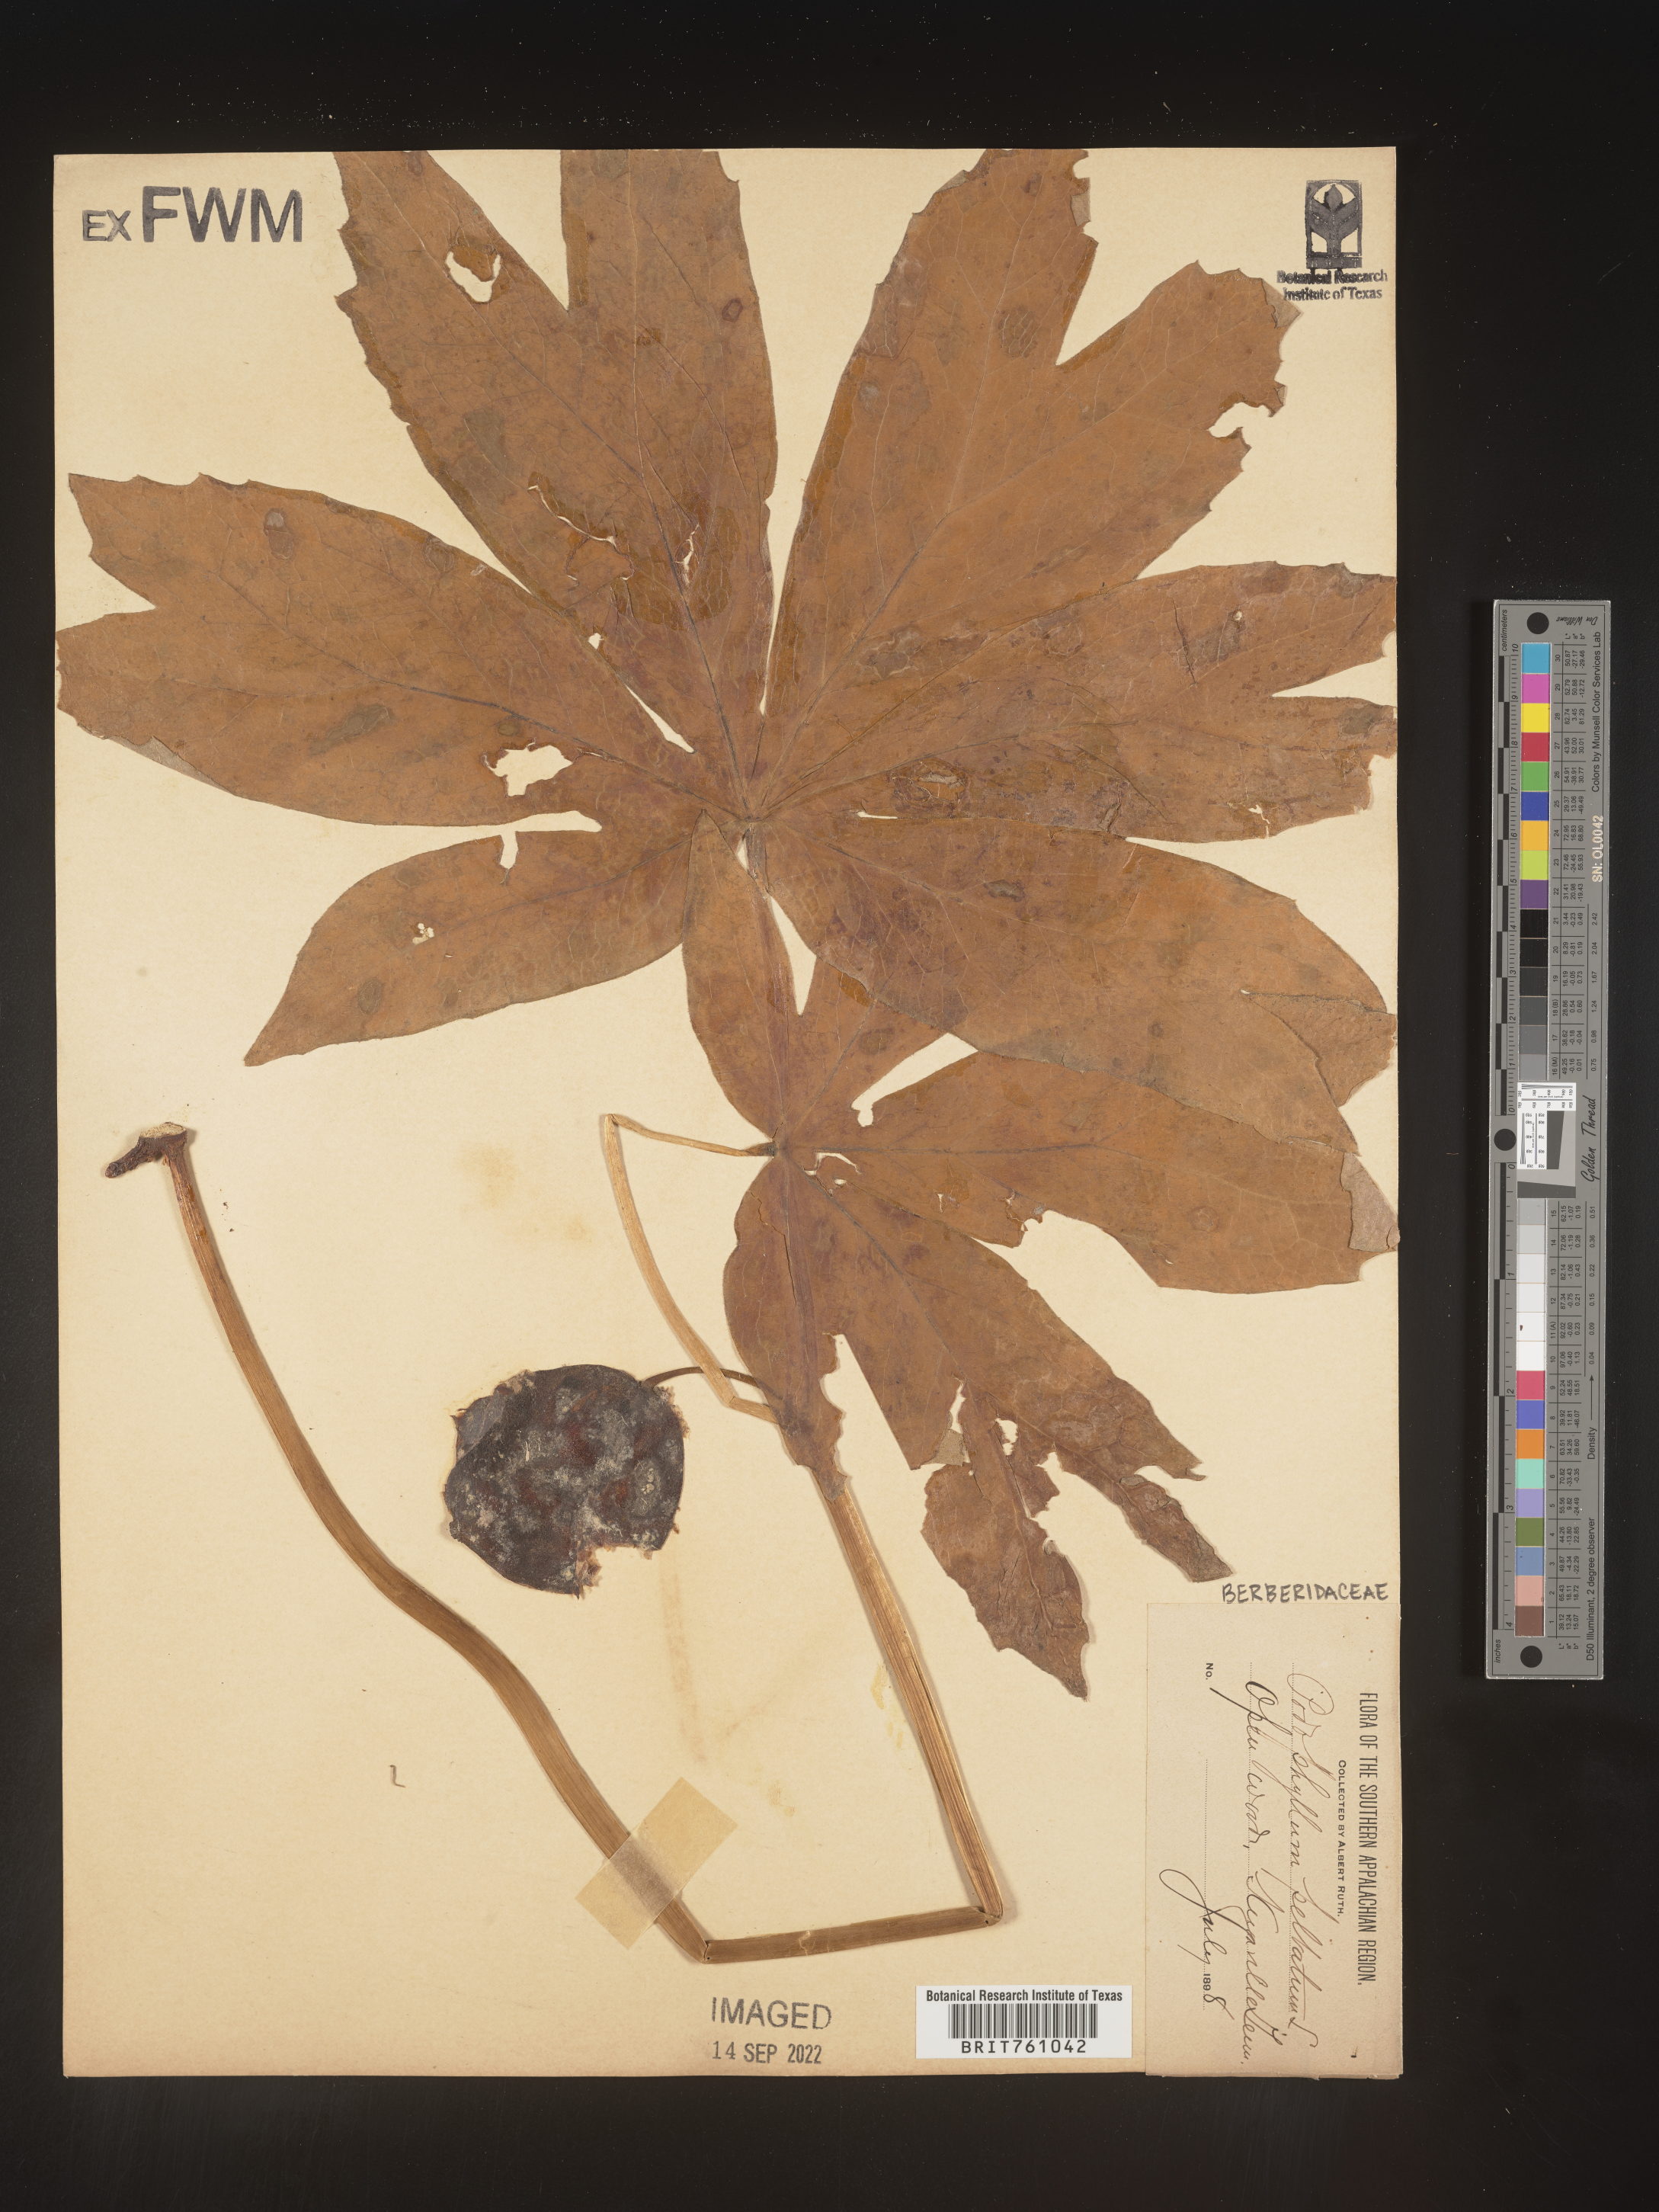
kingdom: Plantae
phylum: Tracheophyta
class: Magnoliopsida
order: Ranunculales
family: Berberidaceae
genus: Podophyllum
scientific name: Podophyllum peltatum
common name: Wild mandrake
